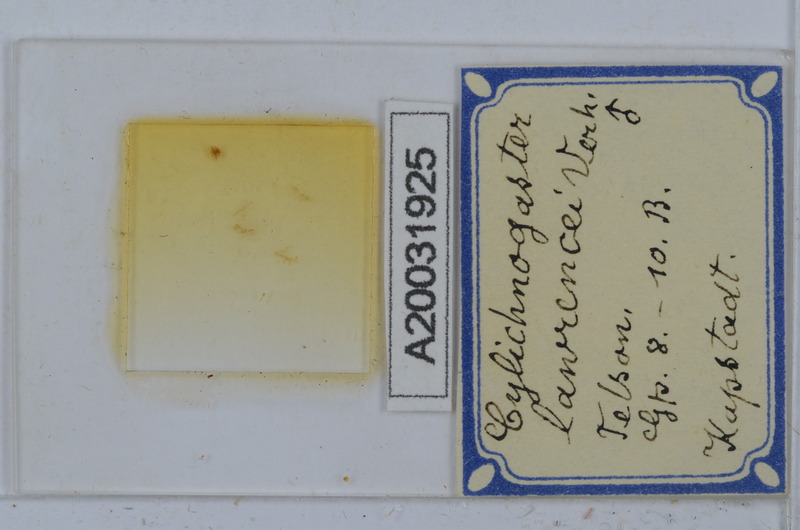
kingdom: Animalia
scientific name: Animalia
